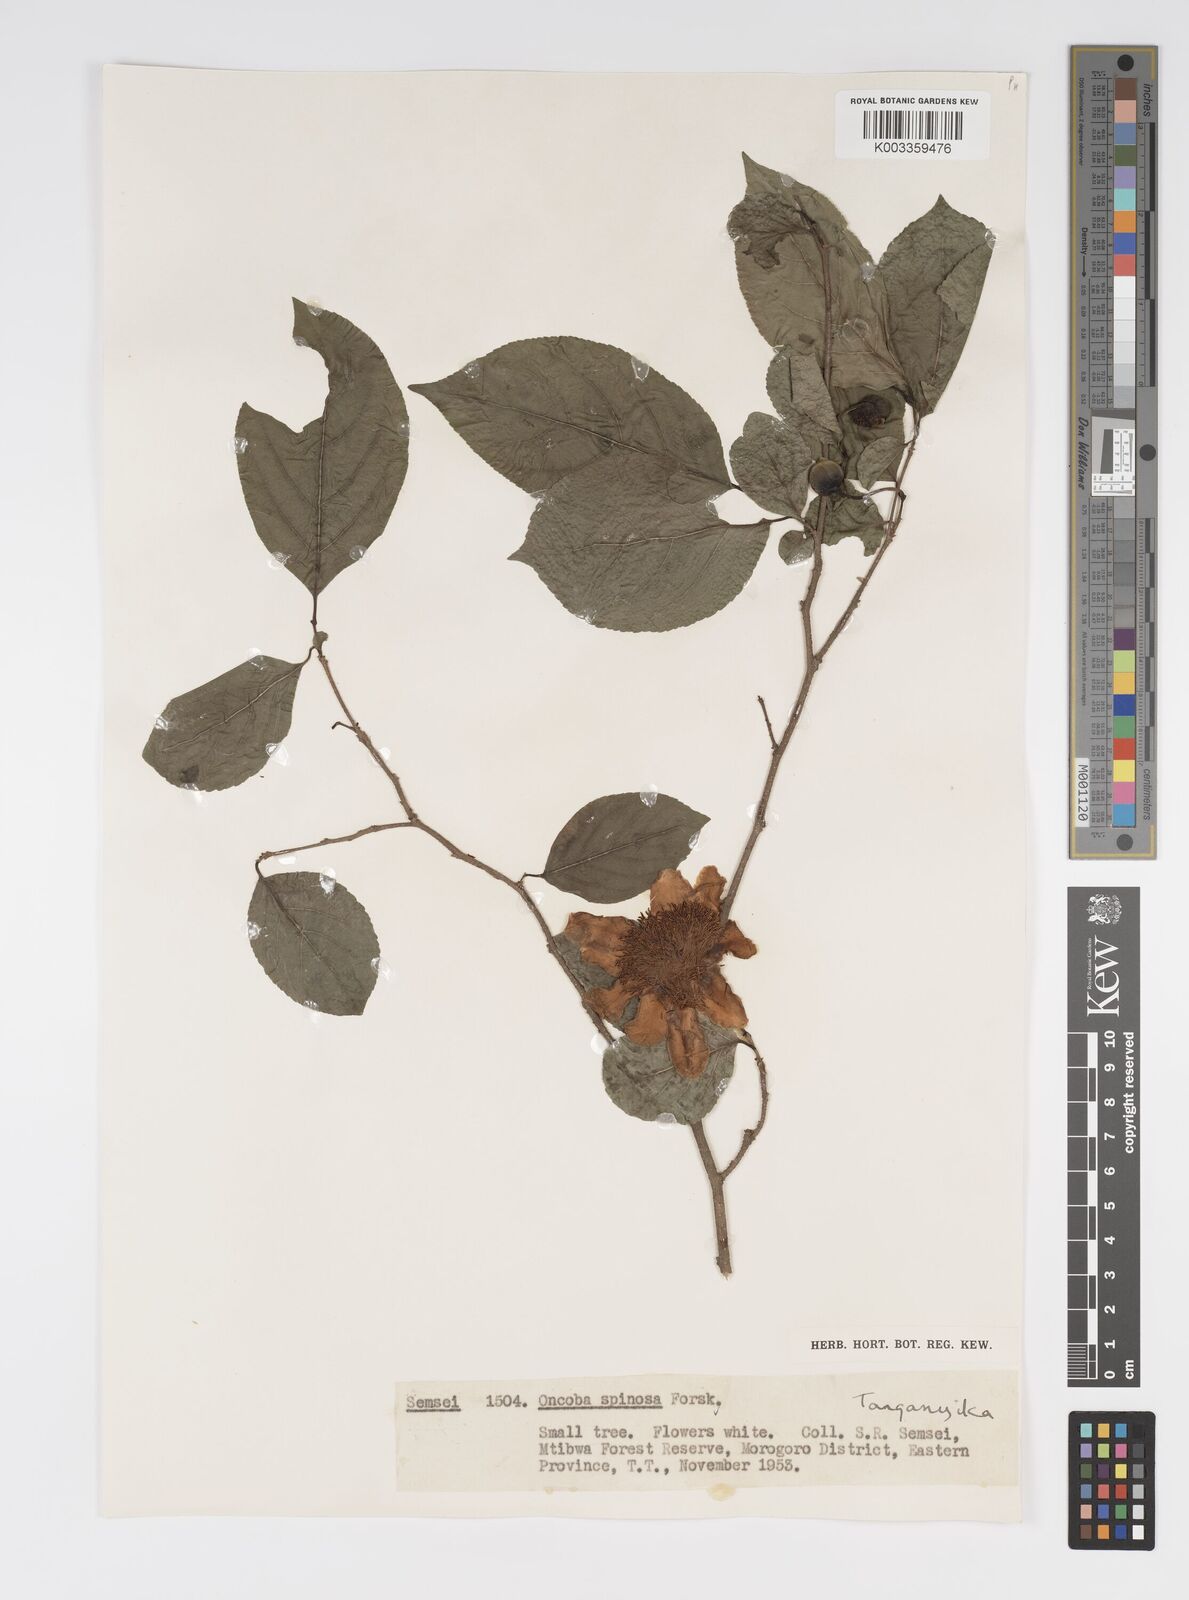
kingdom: Plantae
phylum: Tracheophyta
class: Magnoliopsida
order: Malpighiales
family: Salicaceae
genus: Oncoba
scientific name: Oncoba spinosa
